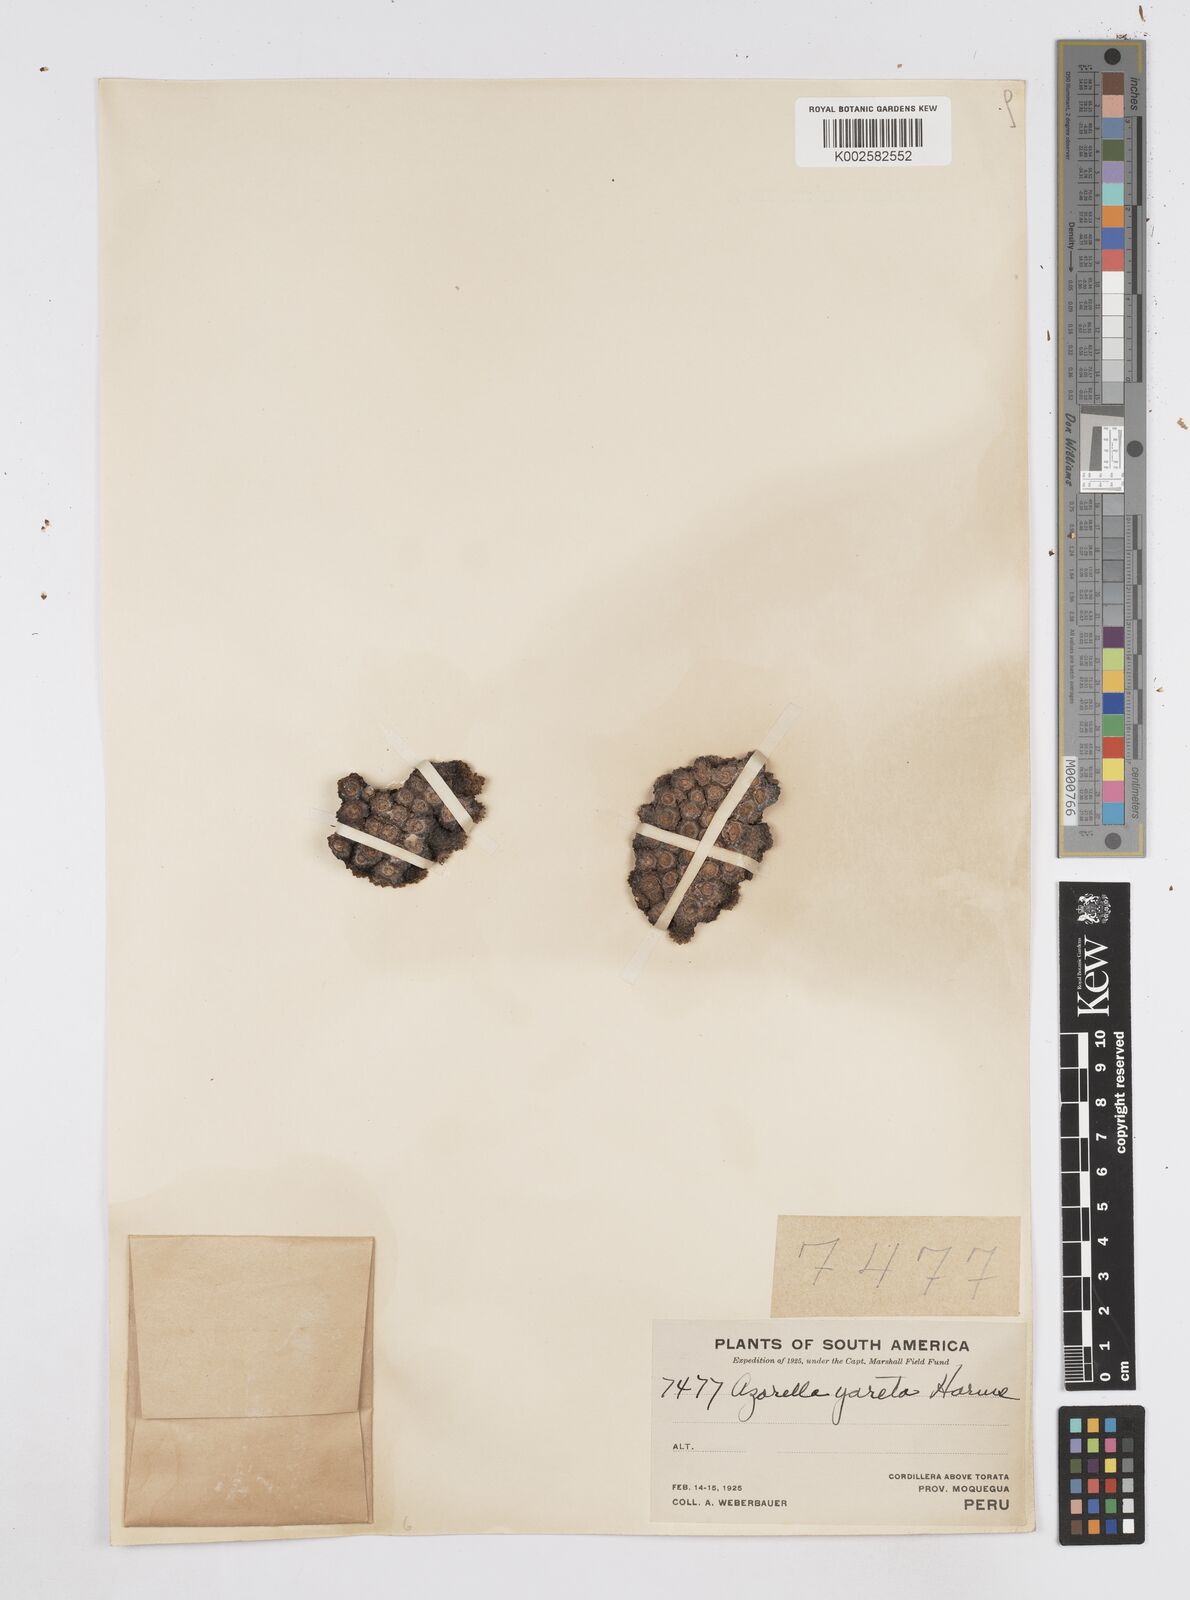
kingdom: Plantae
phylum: Tracheophyta
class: Magnoliopsida
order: Apiales
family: Apiaceae
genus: Azorella
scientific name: Azorella compacta
